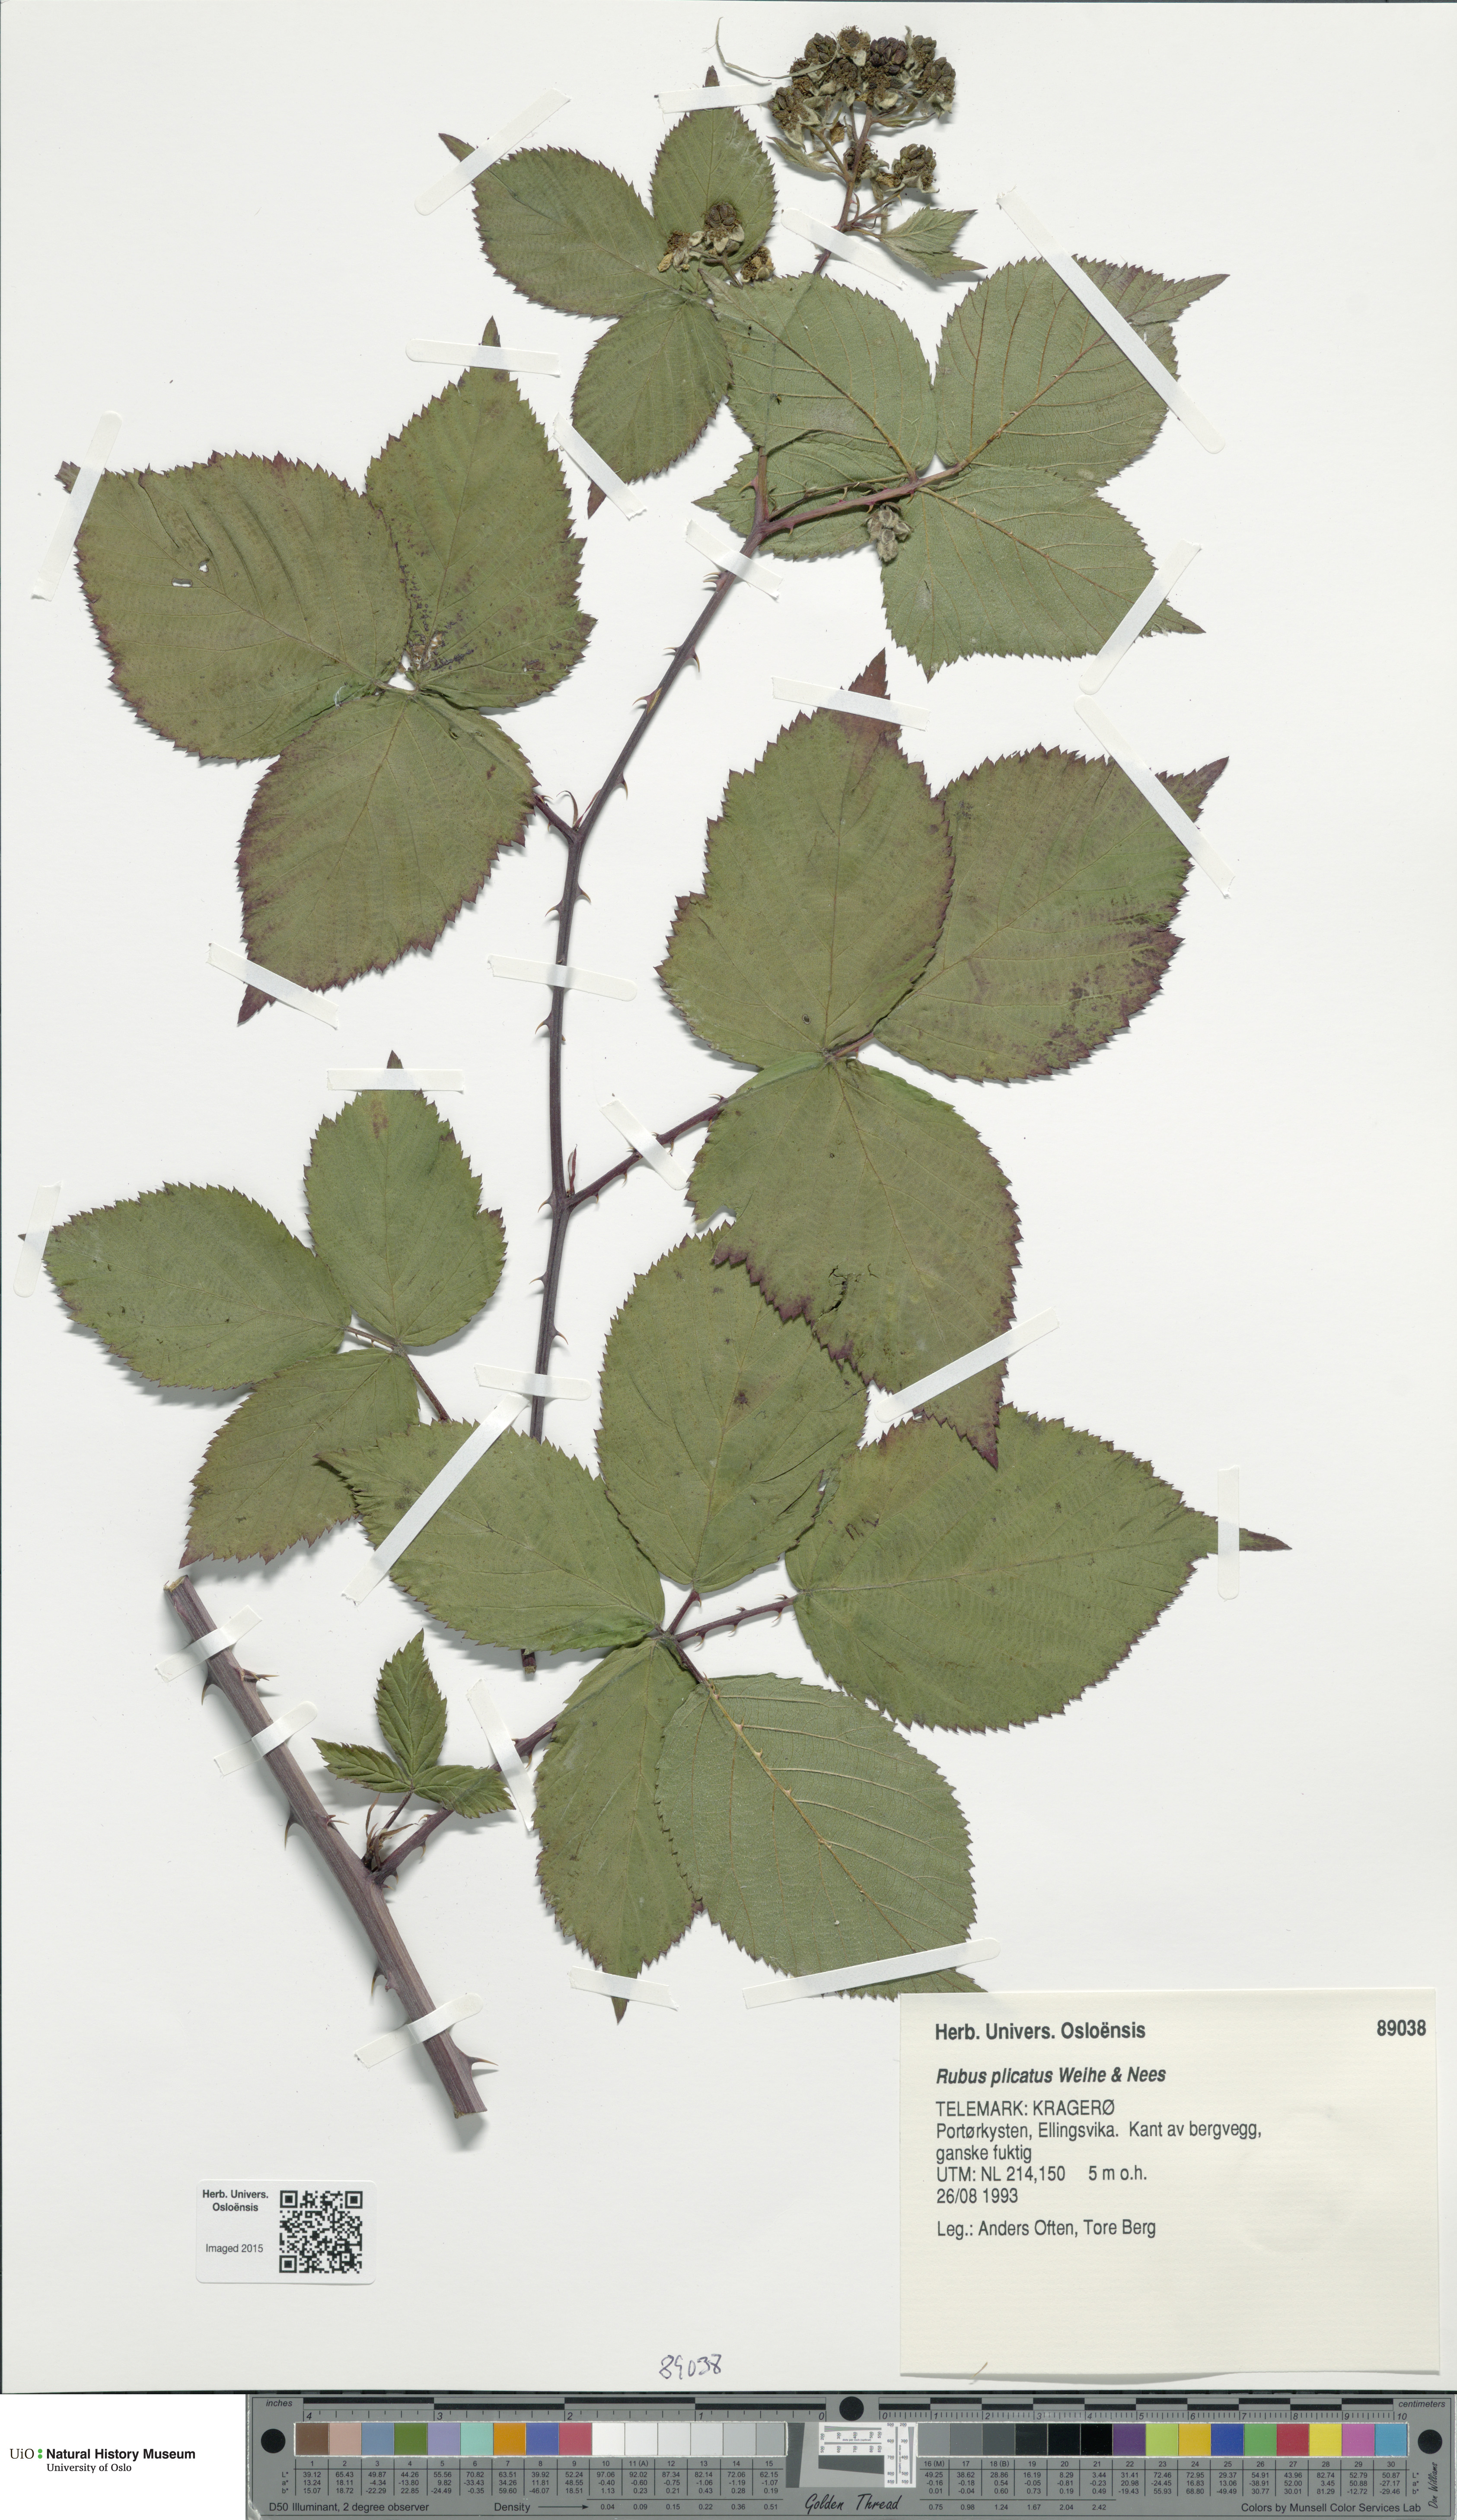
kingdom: Plantae
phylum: Tracheophyta
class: Magnoliopsida
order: Rosales
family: Rosaceae
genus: Rubus
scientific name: Rubus fruticosus
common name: Blackberry, bramble
